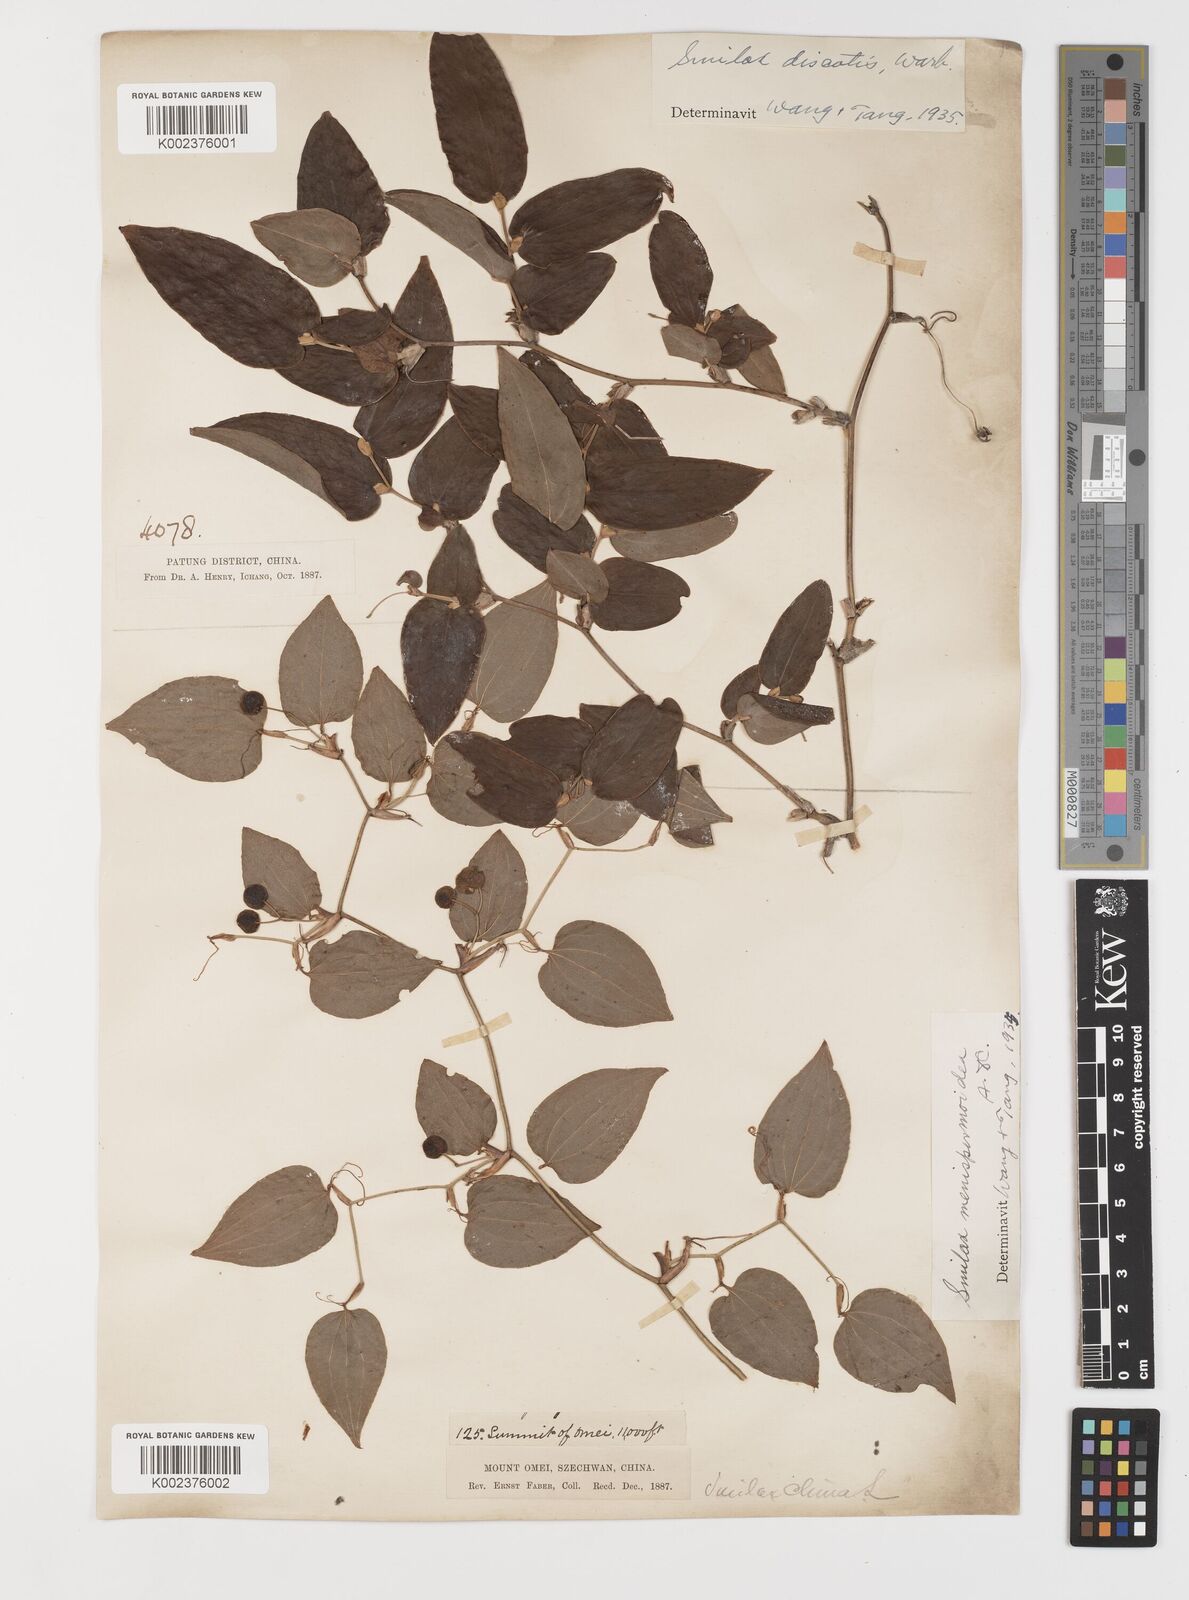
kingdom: Plantae
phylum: Tracheophyta
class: Liliopsida
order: Liliales
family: Smilacaceae
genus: Smilax
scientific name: Smilax discotis
